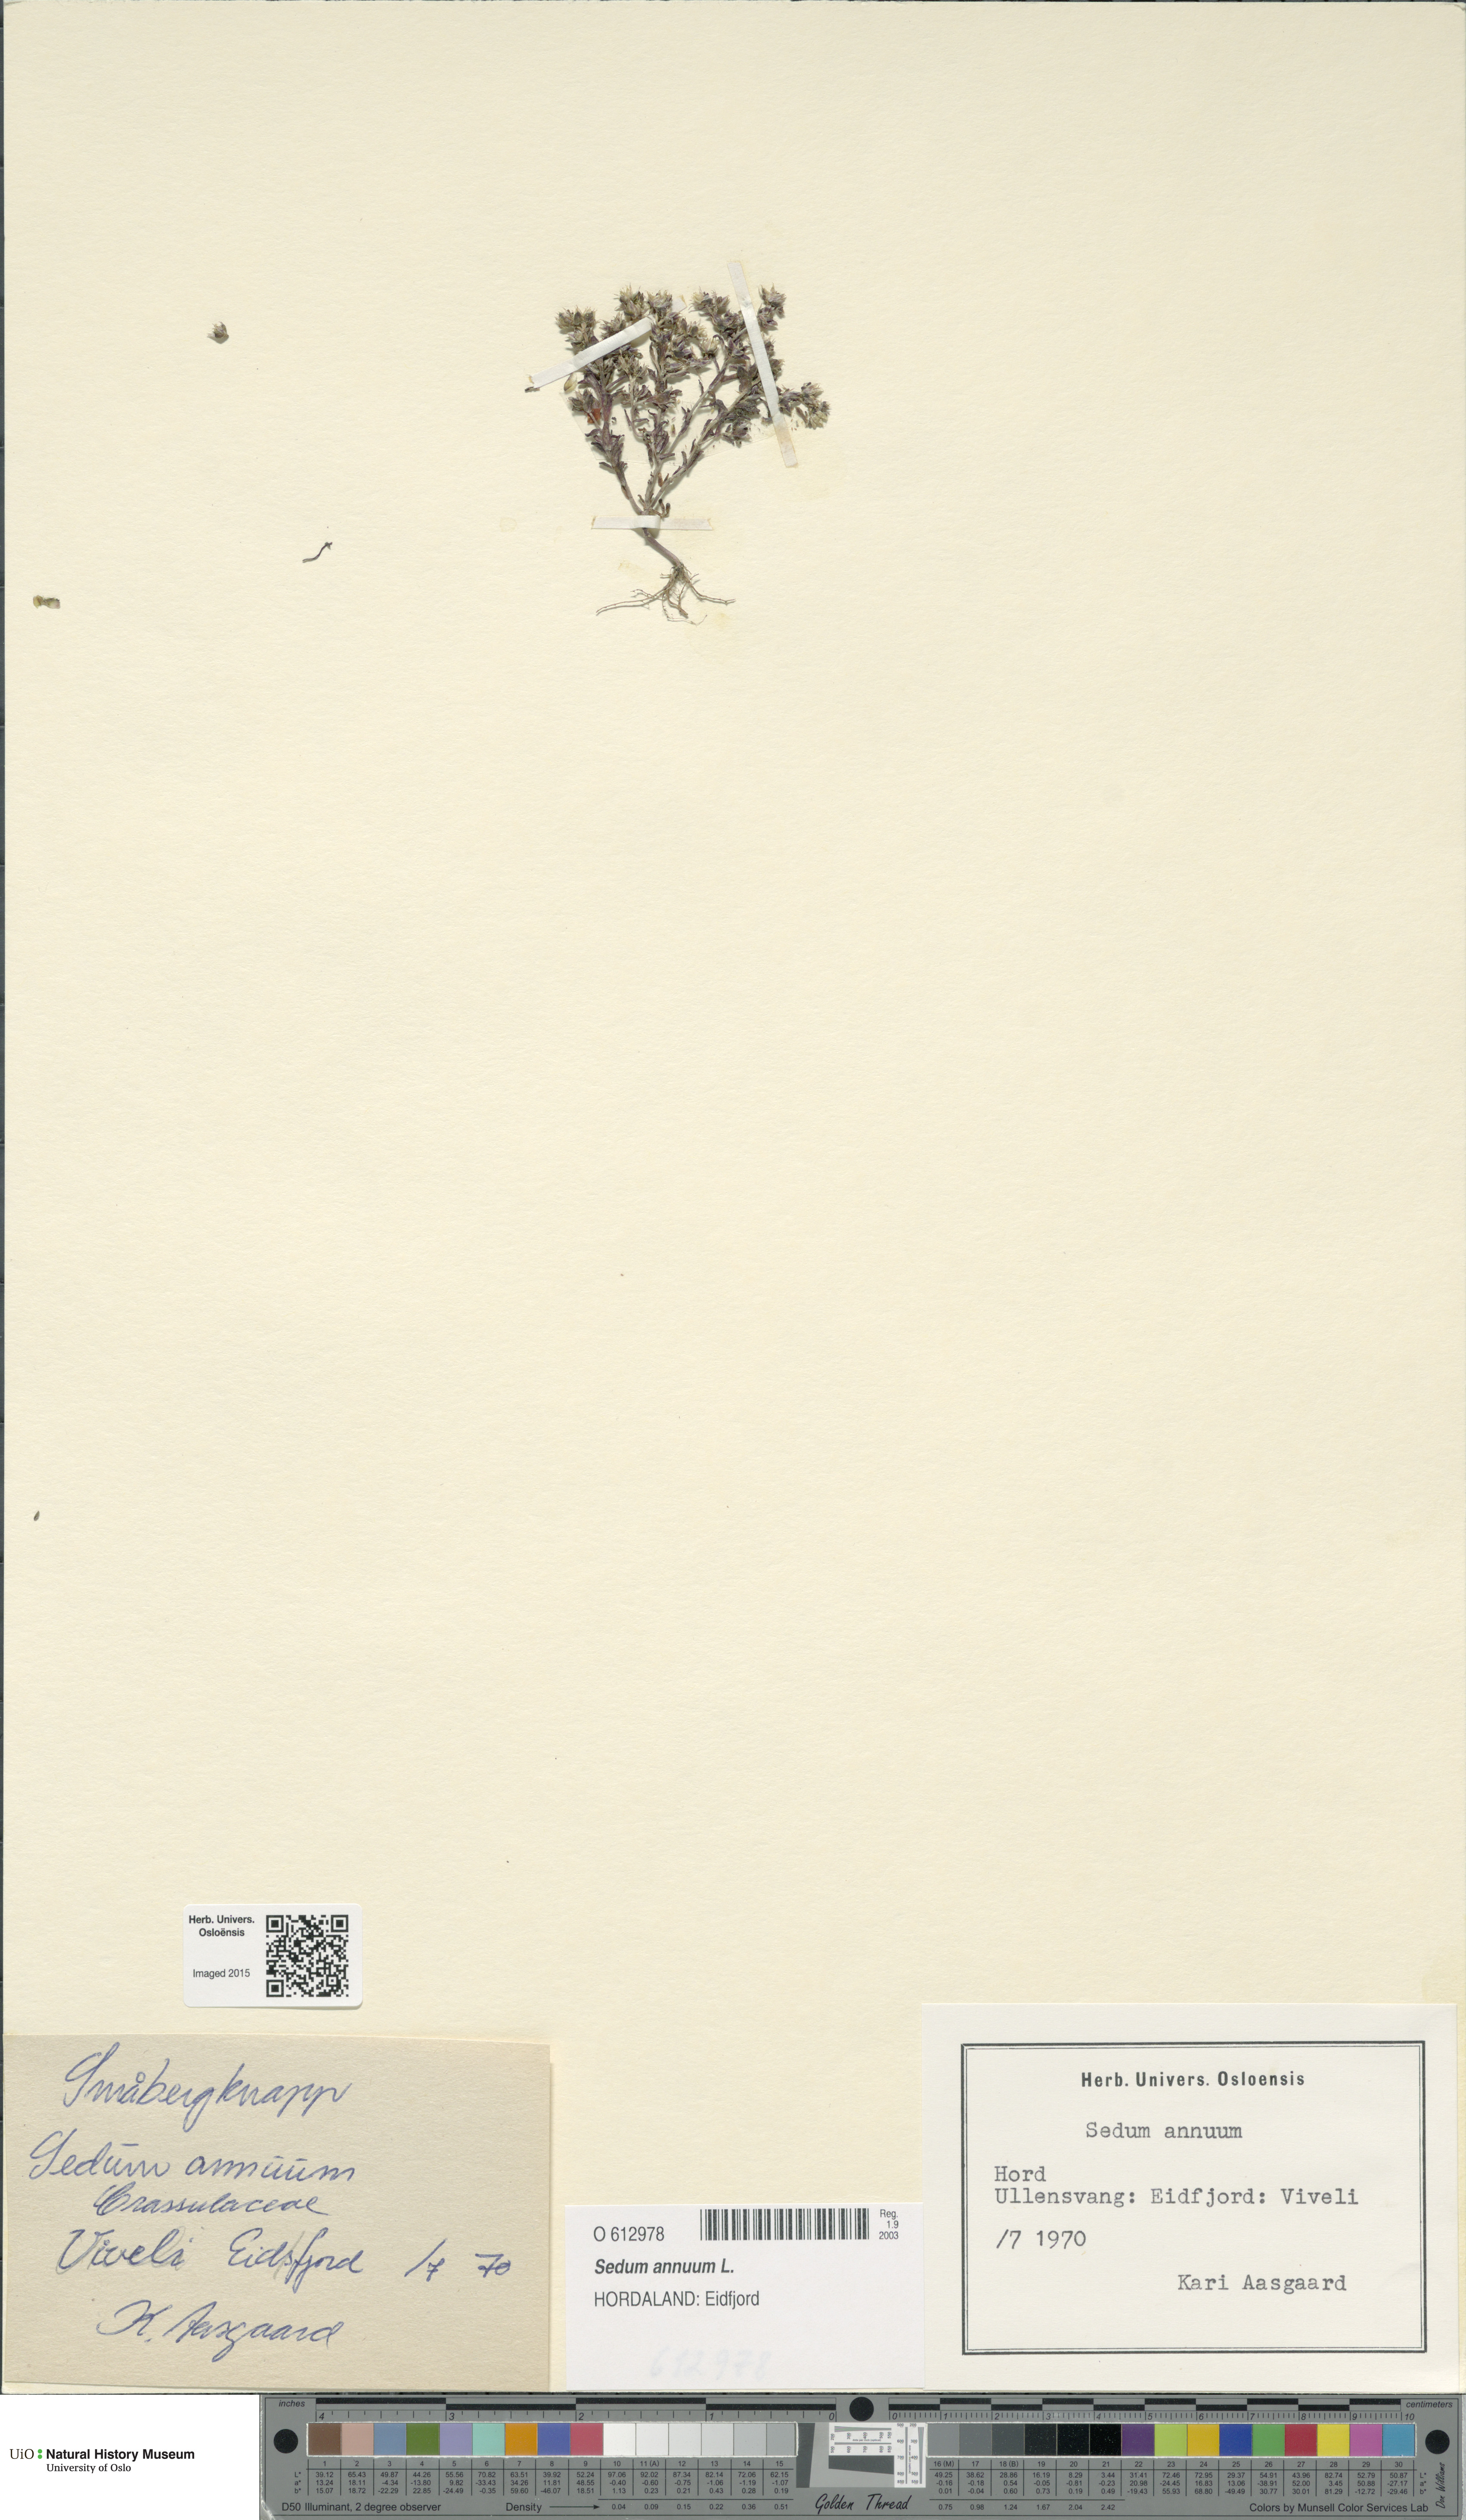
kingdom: Plantae
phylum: Tracheophyta
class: Magnoliopsida
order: Saxifragales
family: Crassulaceae
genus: Sedum
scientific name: Sedum annuum
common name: Annual stonecrop
